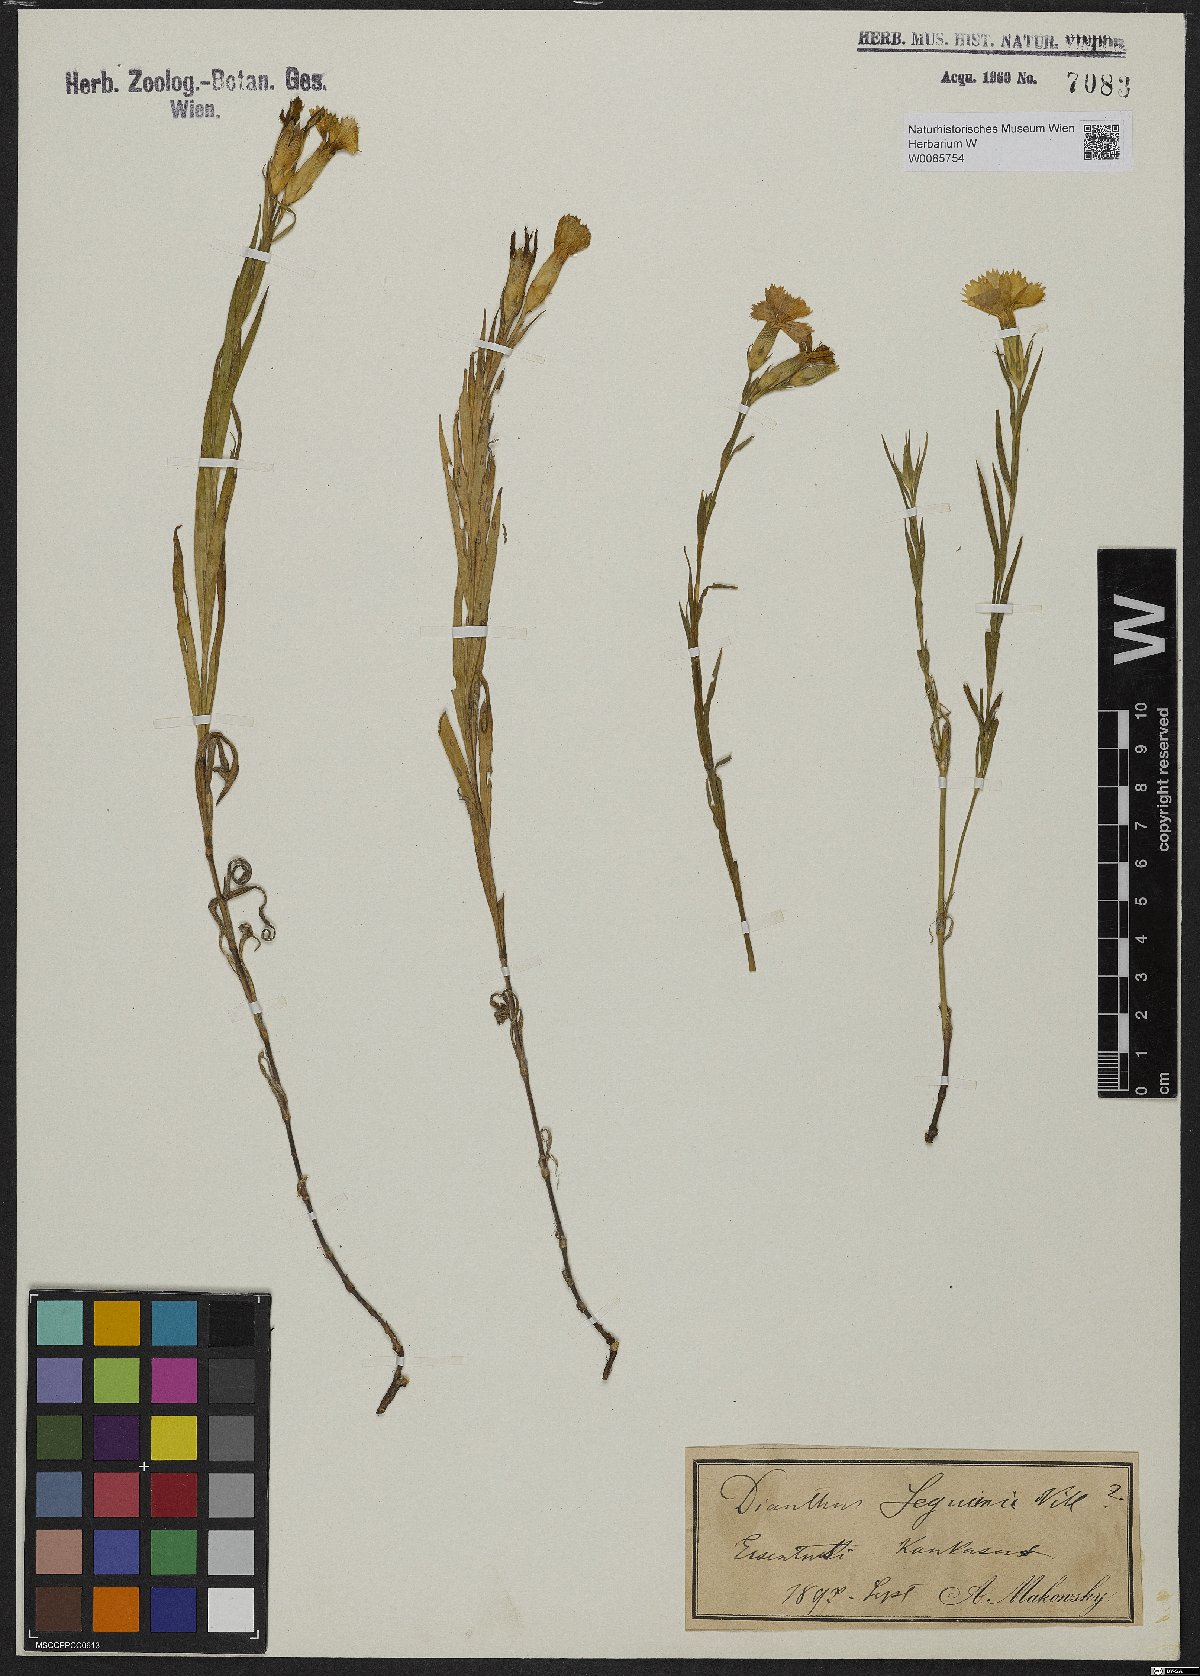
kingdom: Plantae
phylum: Tracheophyta
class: Magnoliopsida
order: Caryophyllales
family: Caryophyllaceae
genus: Dianthus
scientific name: Dianthus seguieri
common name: Ragged pink
